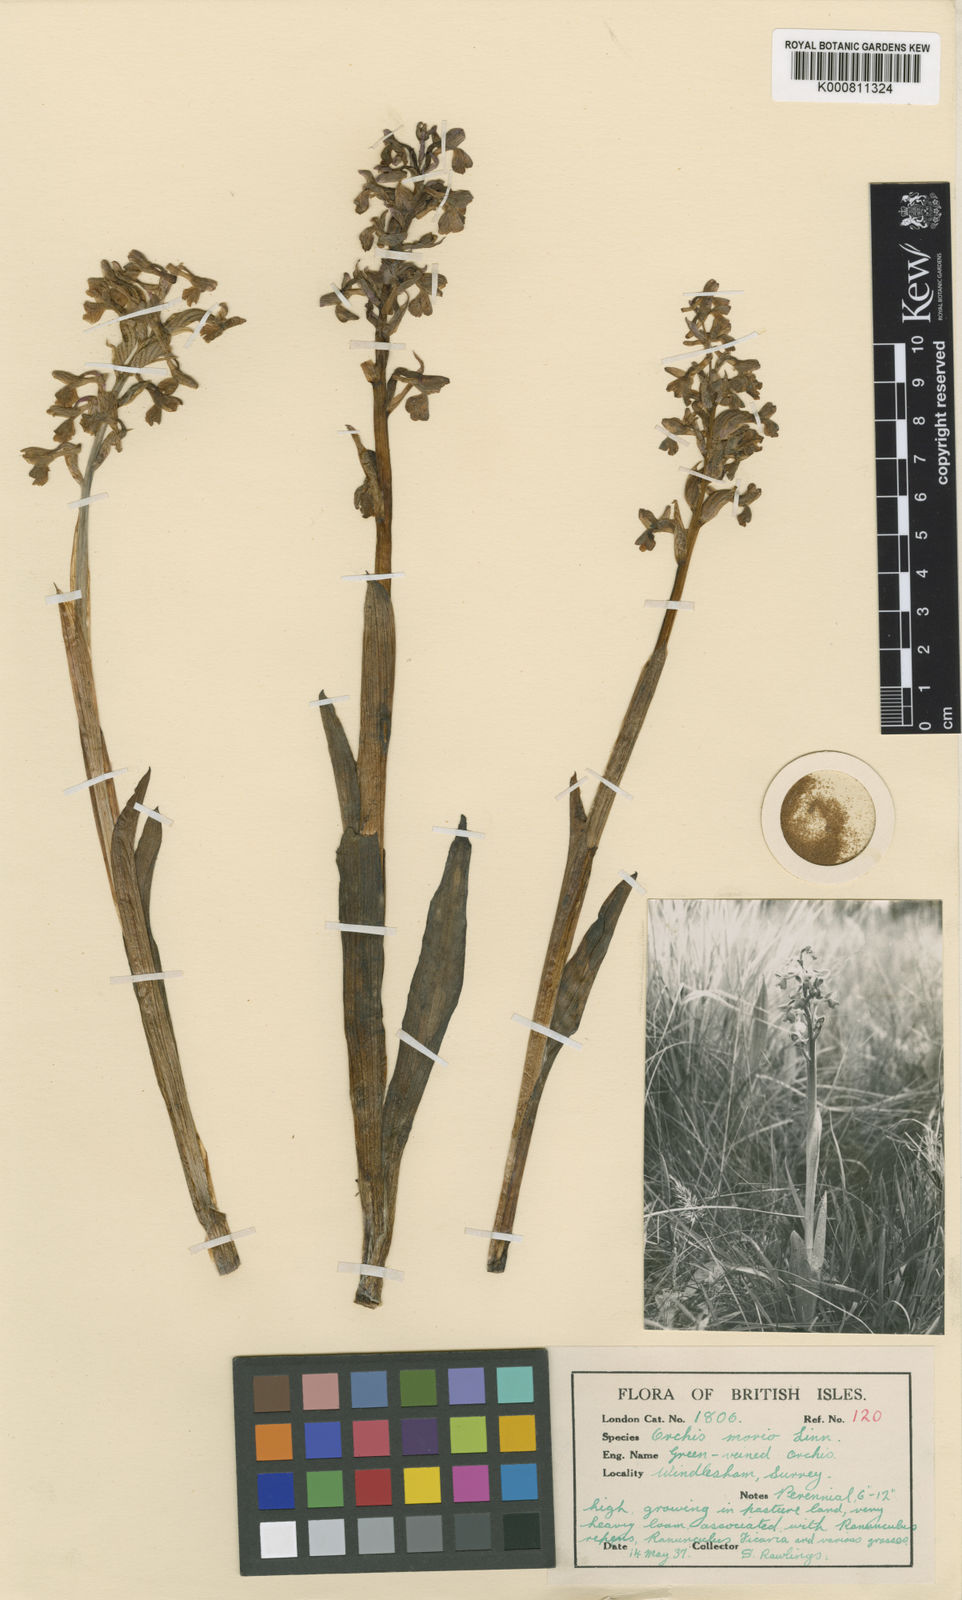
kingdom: Plantae
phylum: Tracheophyta
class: Liliopsida
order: Asparagales
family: Orchidaceae
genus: Anacamptis
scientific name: Anacamptis morio
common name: Green-winged orchid
